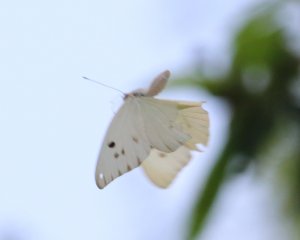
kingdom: Animalia
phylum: Arthropoda
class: Insecta
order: Lepidoptera
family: Pieridae
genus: Ganyra
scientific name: Ganyra josephina
